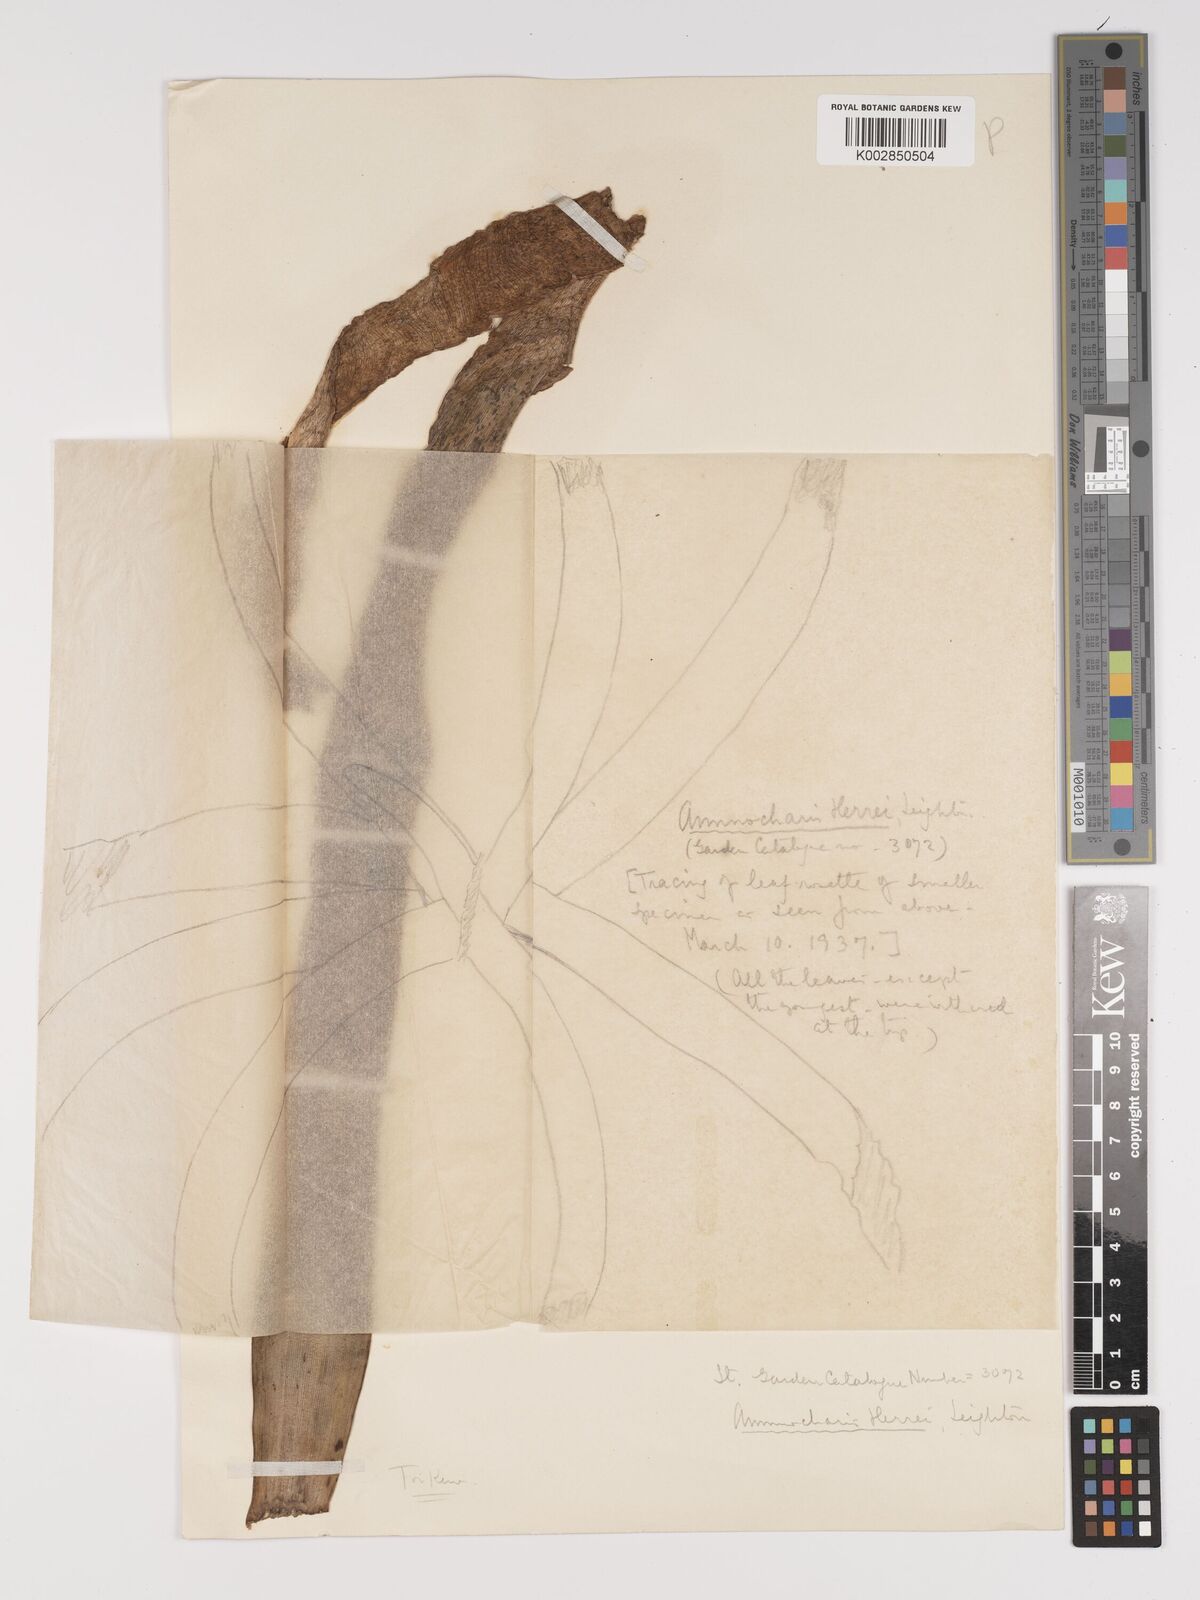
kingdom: Plantae
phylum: Tracheophyta
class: Liliopsida
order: Asparagales
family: Amaryllidaceae
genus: Ammocharis
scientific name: Ammocharis nerinoides
